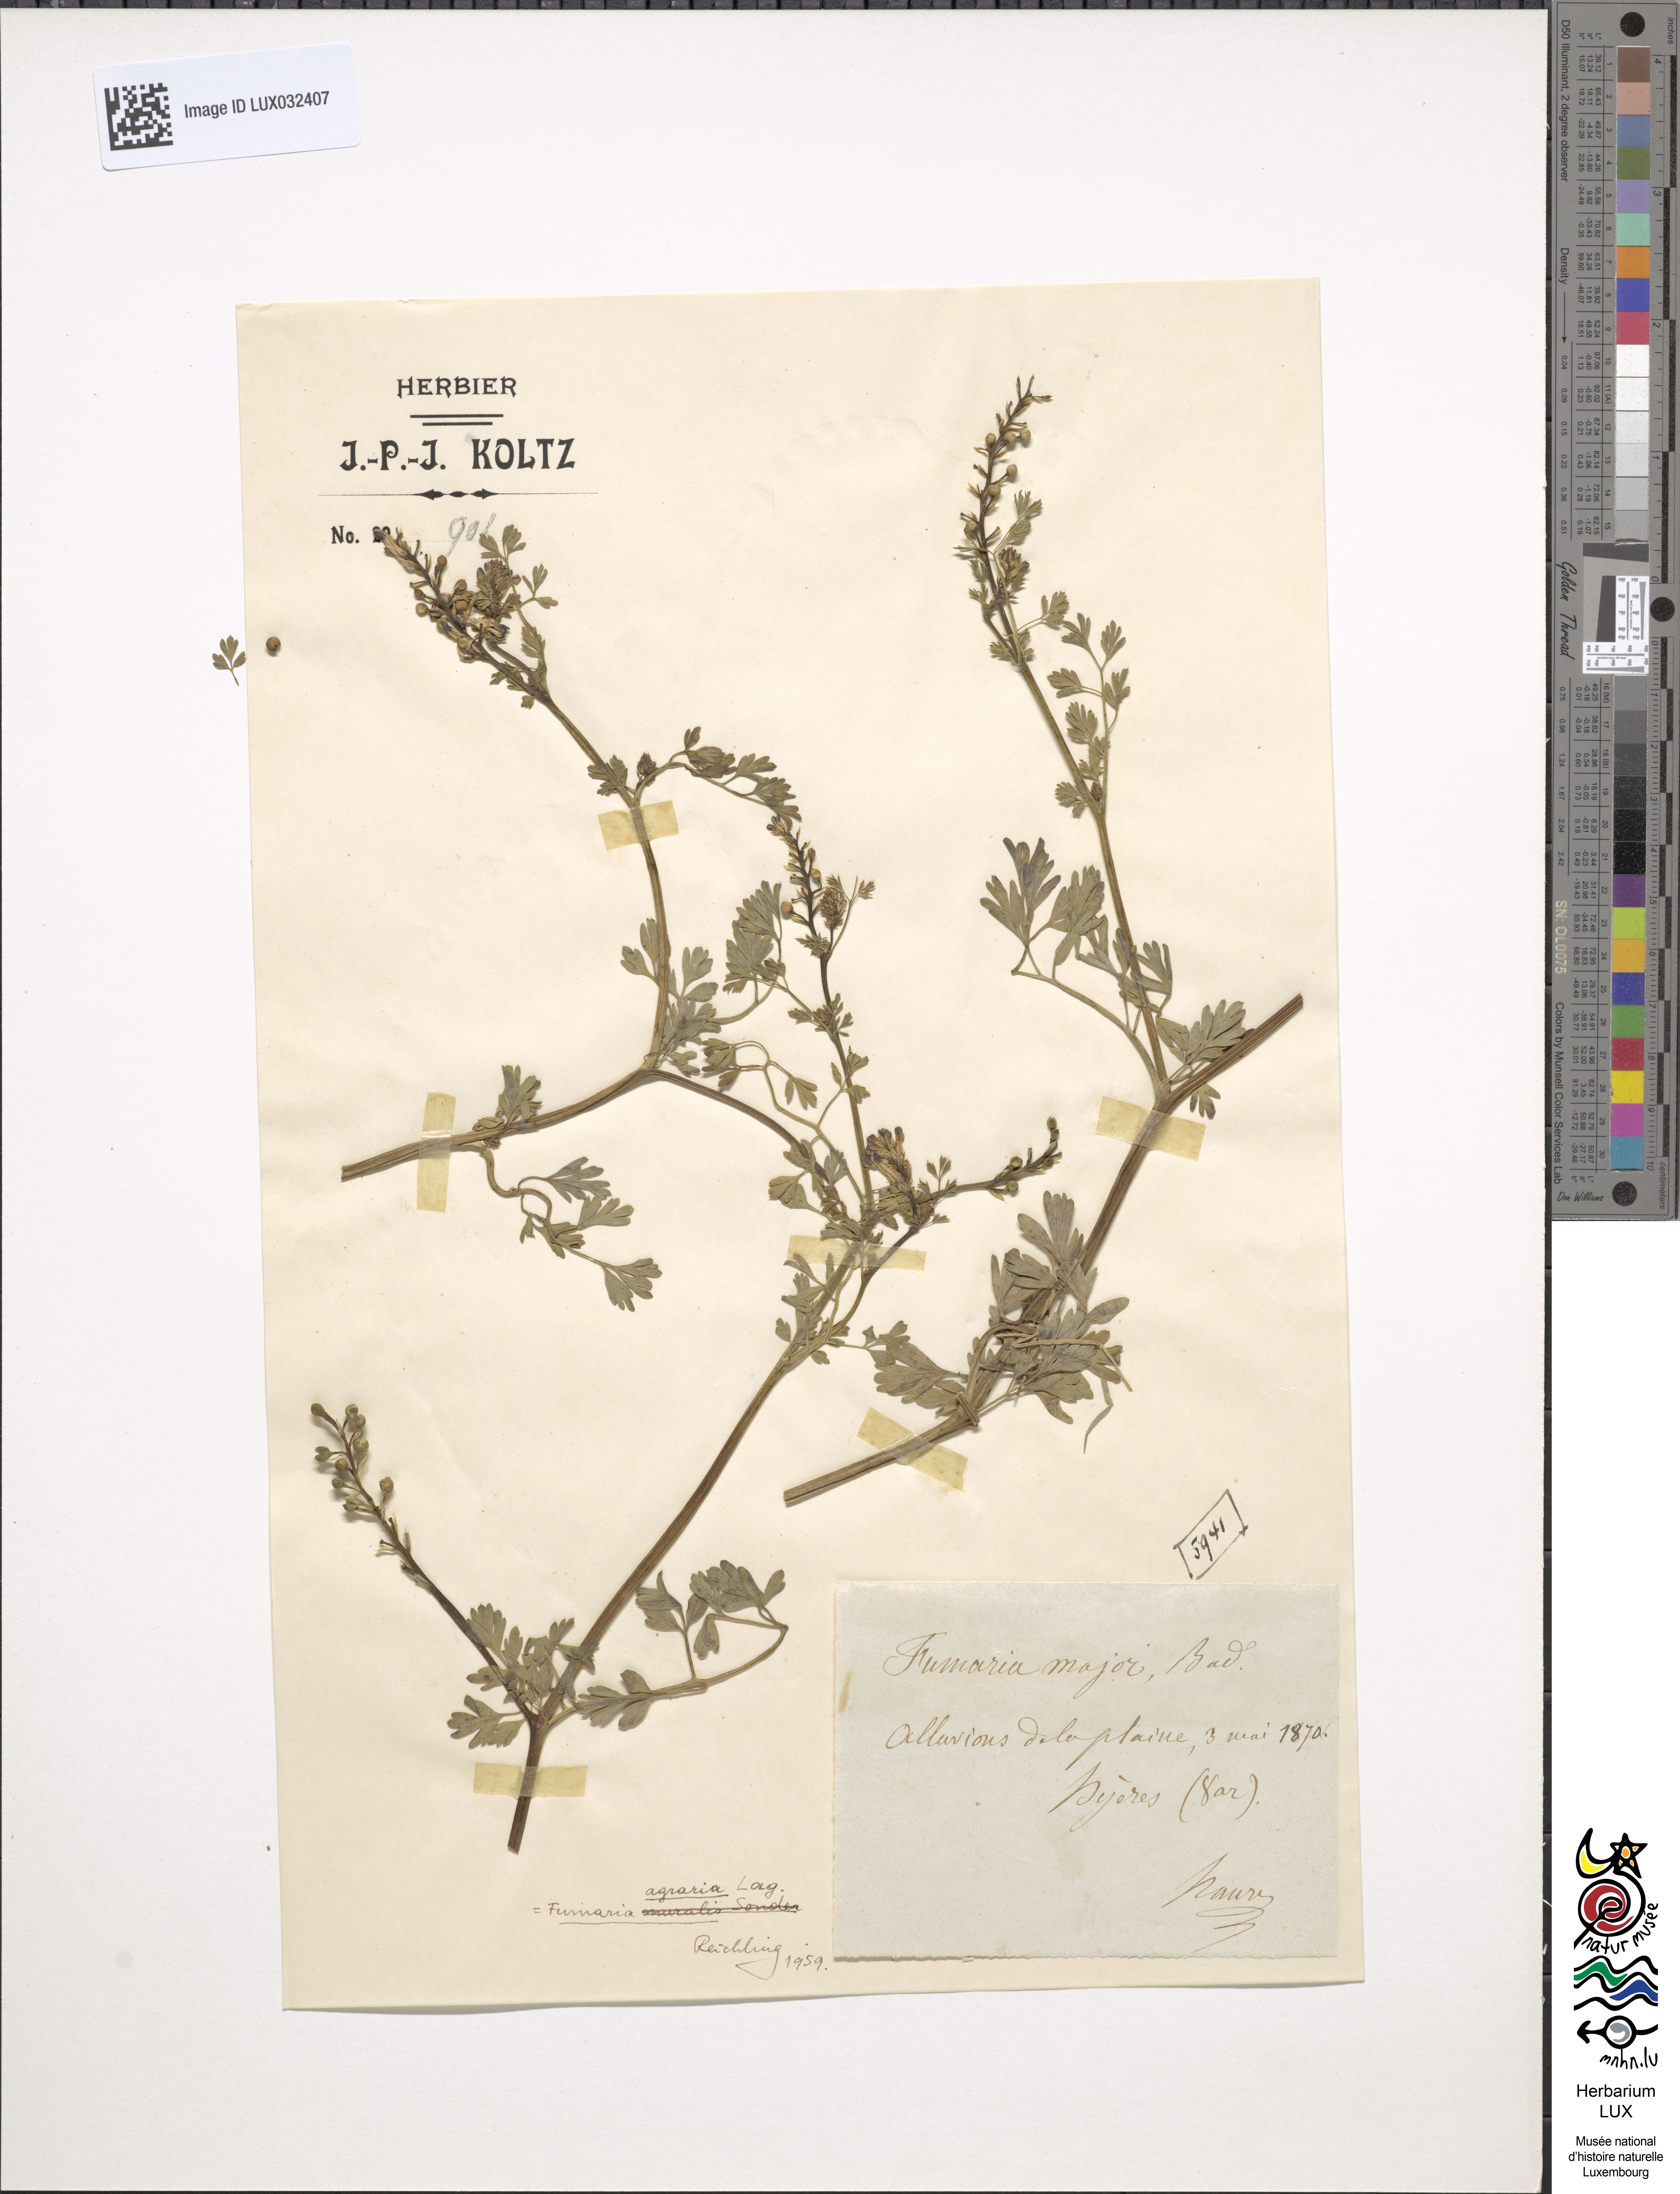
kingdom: Plantae
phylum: Tracheophyta
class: Magnoliopsida
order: Ranunculales
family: Papaveraceae
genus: Fumaria
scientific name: Fumaria agraria
